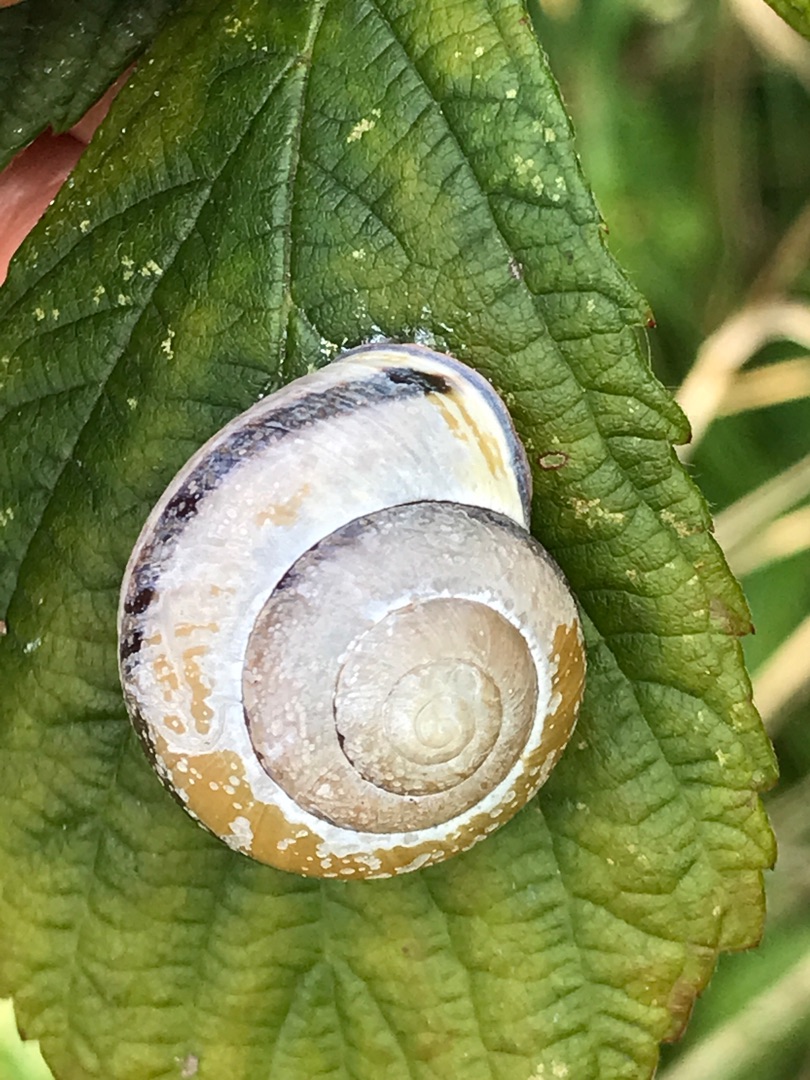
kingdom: Animalia
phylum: Mollusca
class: Gastropoda
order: Stylommatophora
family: Helicidae
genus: Cepaea
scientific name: Cepaea nemoralis
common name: Lundsnegl
